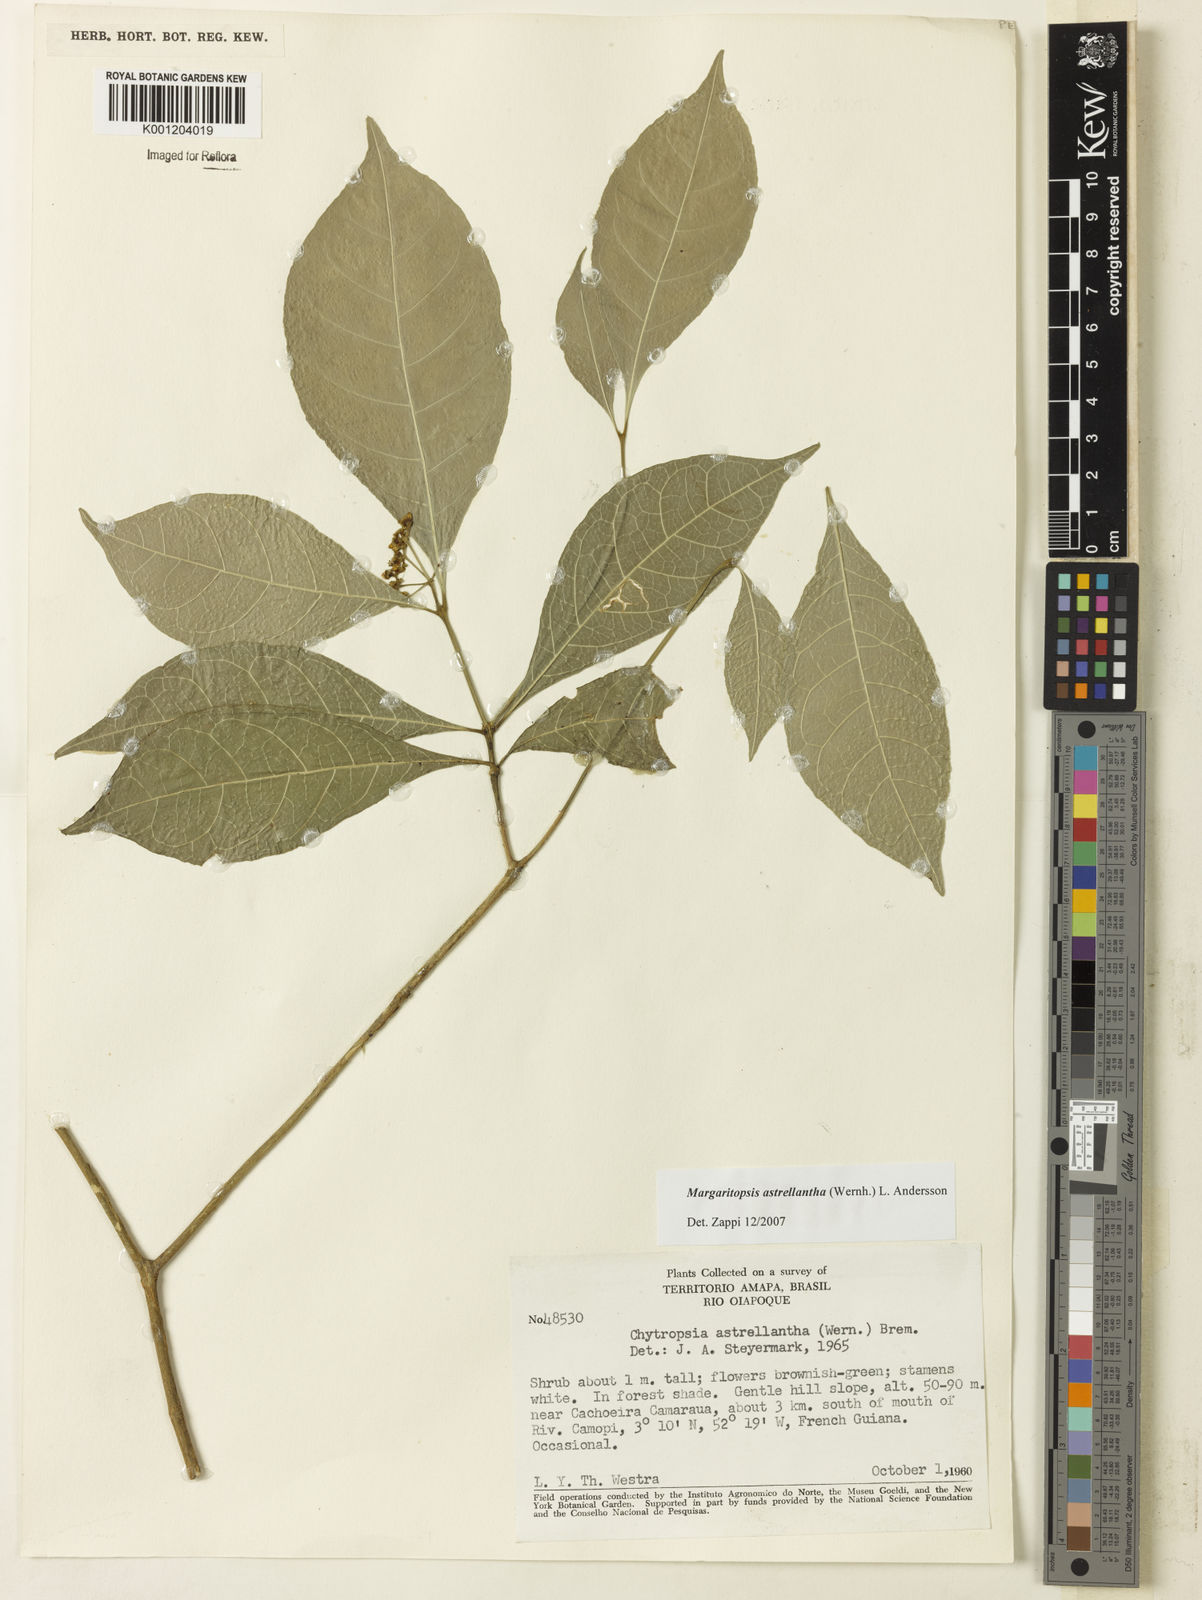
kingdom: Plantae
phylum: Tracheophyta
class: Magnoliopsida
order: Gentianales
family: Rubiaceae
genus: Eumachia
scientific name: Eumachia astrellantha
